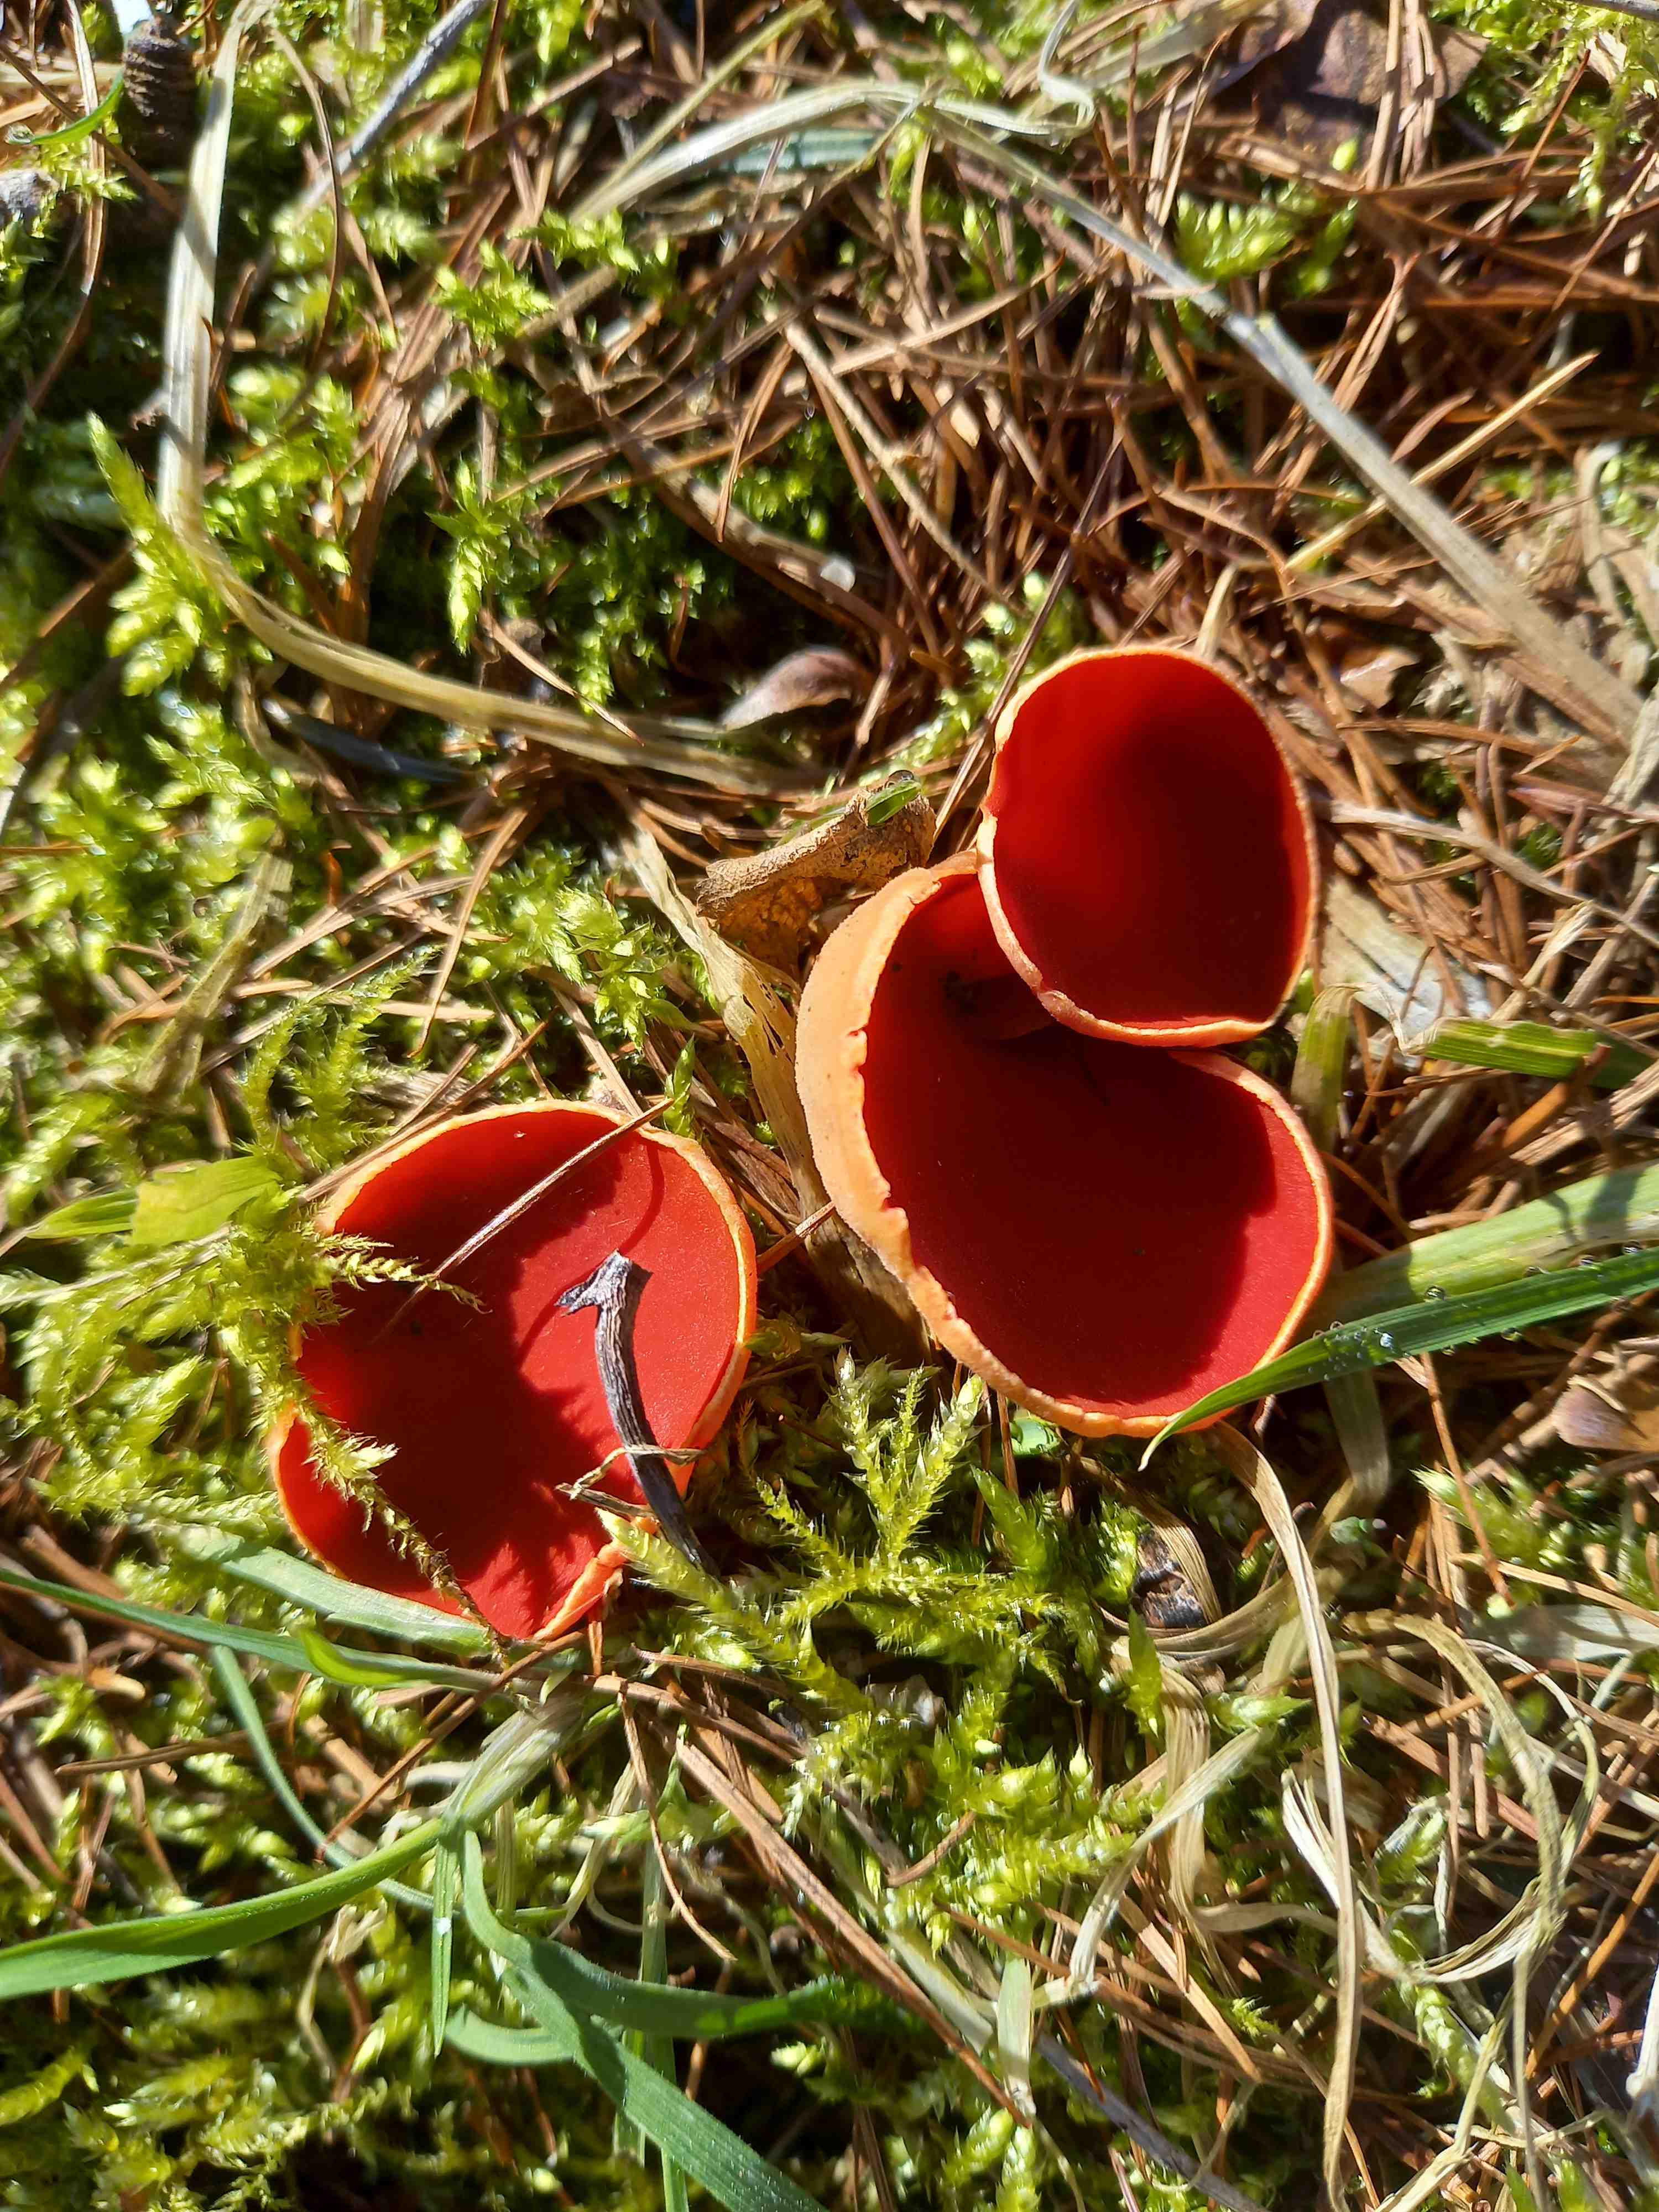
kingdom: Fungi
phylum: Ascomycota
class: Pezizomycetes
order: Pezizales
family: Sarcoscyphaceae
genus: Sarcoscypha
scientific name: Sarcoscypha austriaca
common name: krølhåret pragtbæger
